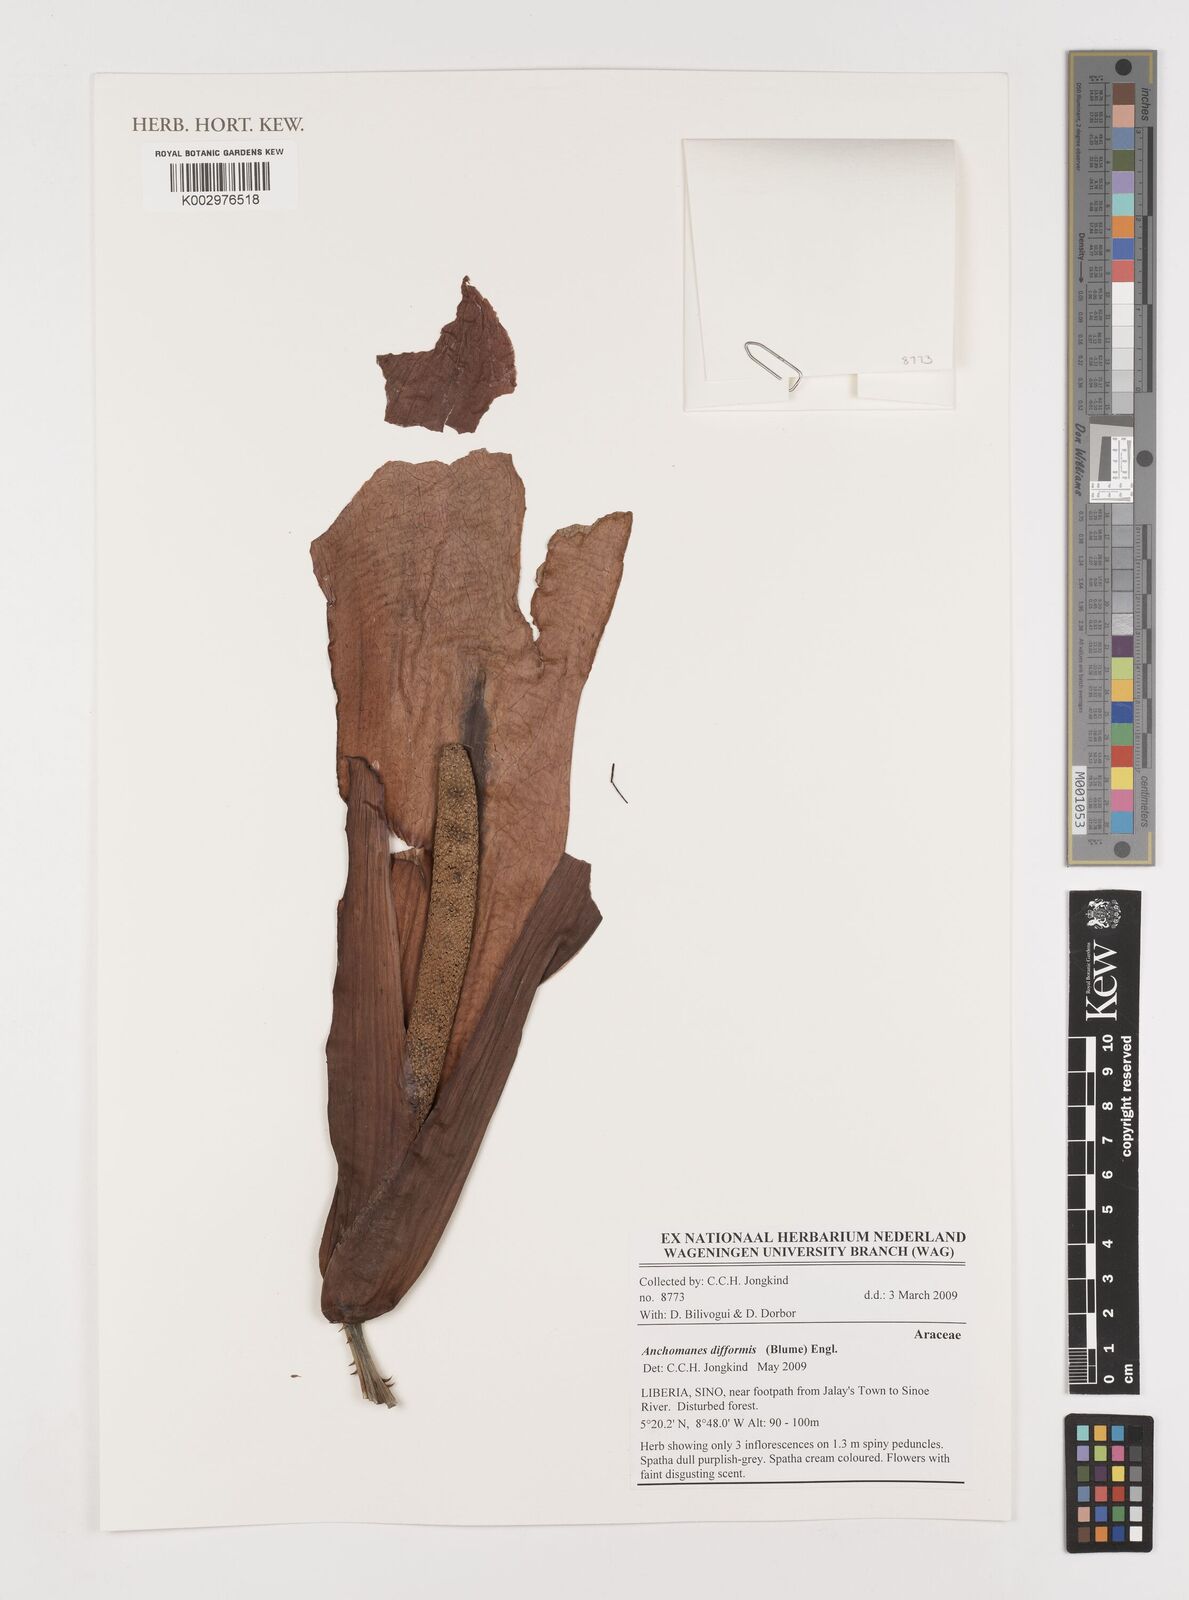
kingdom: Plantae
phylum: Tracheophyta
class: Liliopsida
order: Alismatales
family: Araceae
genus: Anchomanes
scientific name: Anchomanes difformis
